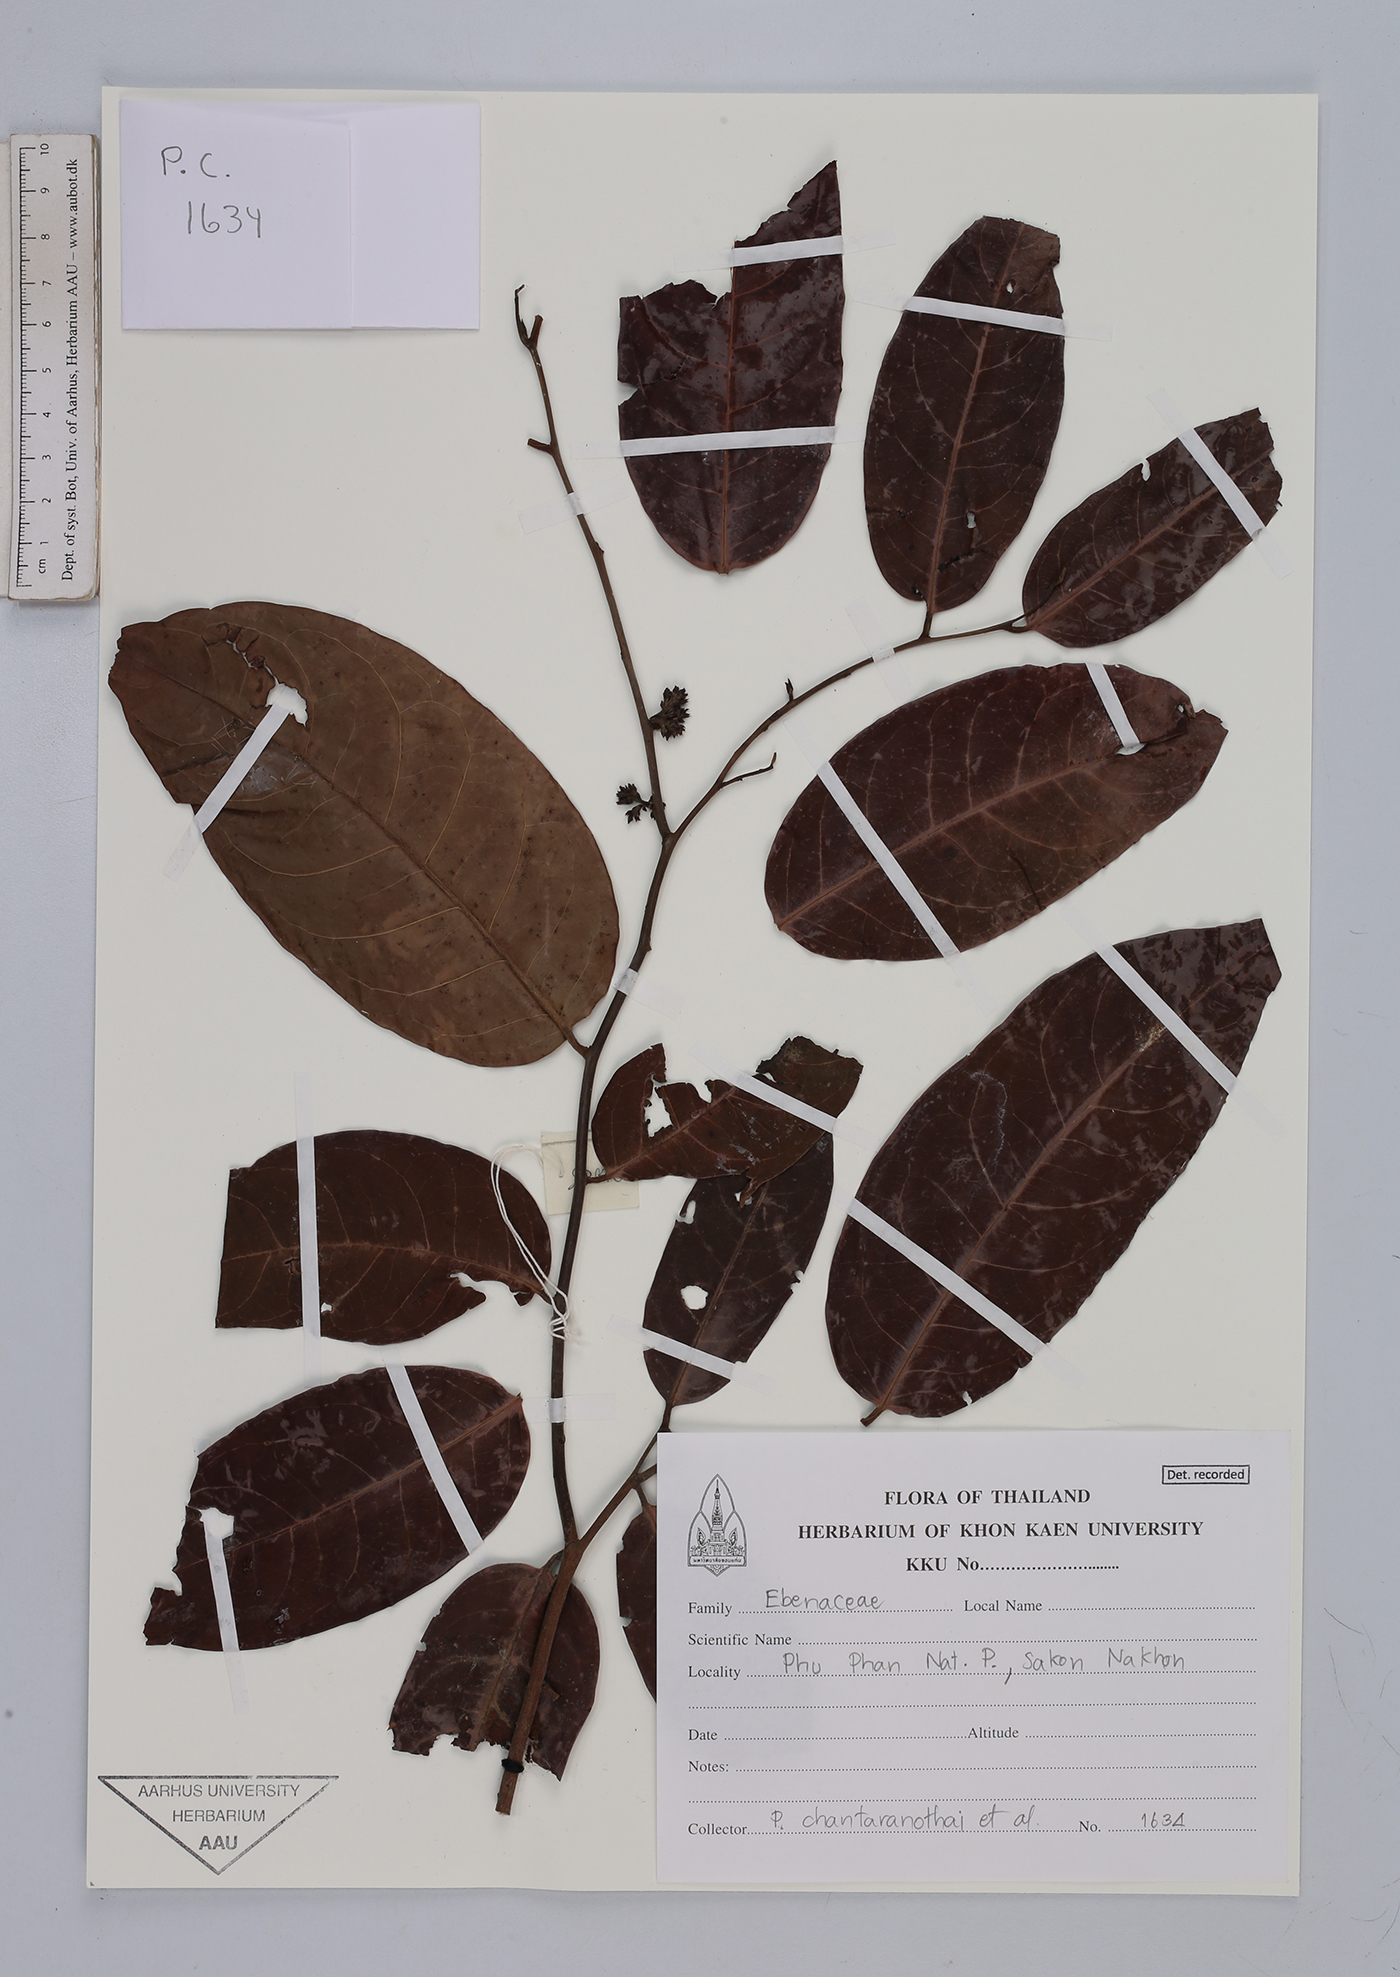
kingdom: Plantae
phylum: Tracheophyta
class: Magnoliopsida
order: Ericales
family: Ebenaceae
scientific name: Ebenaceae
